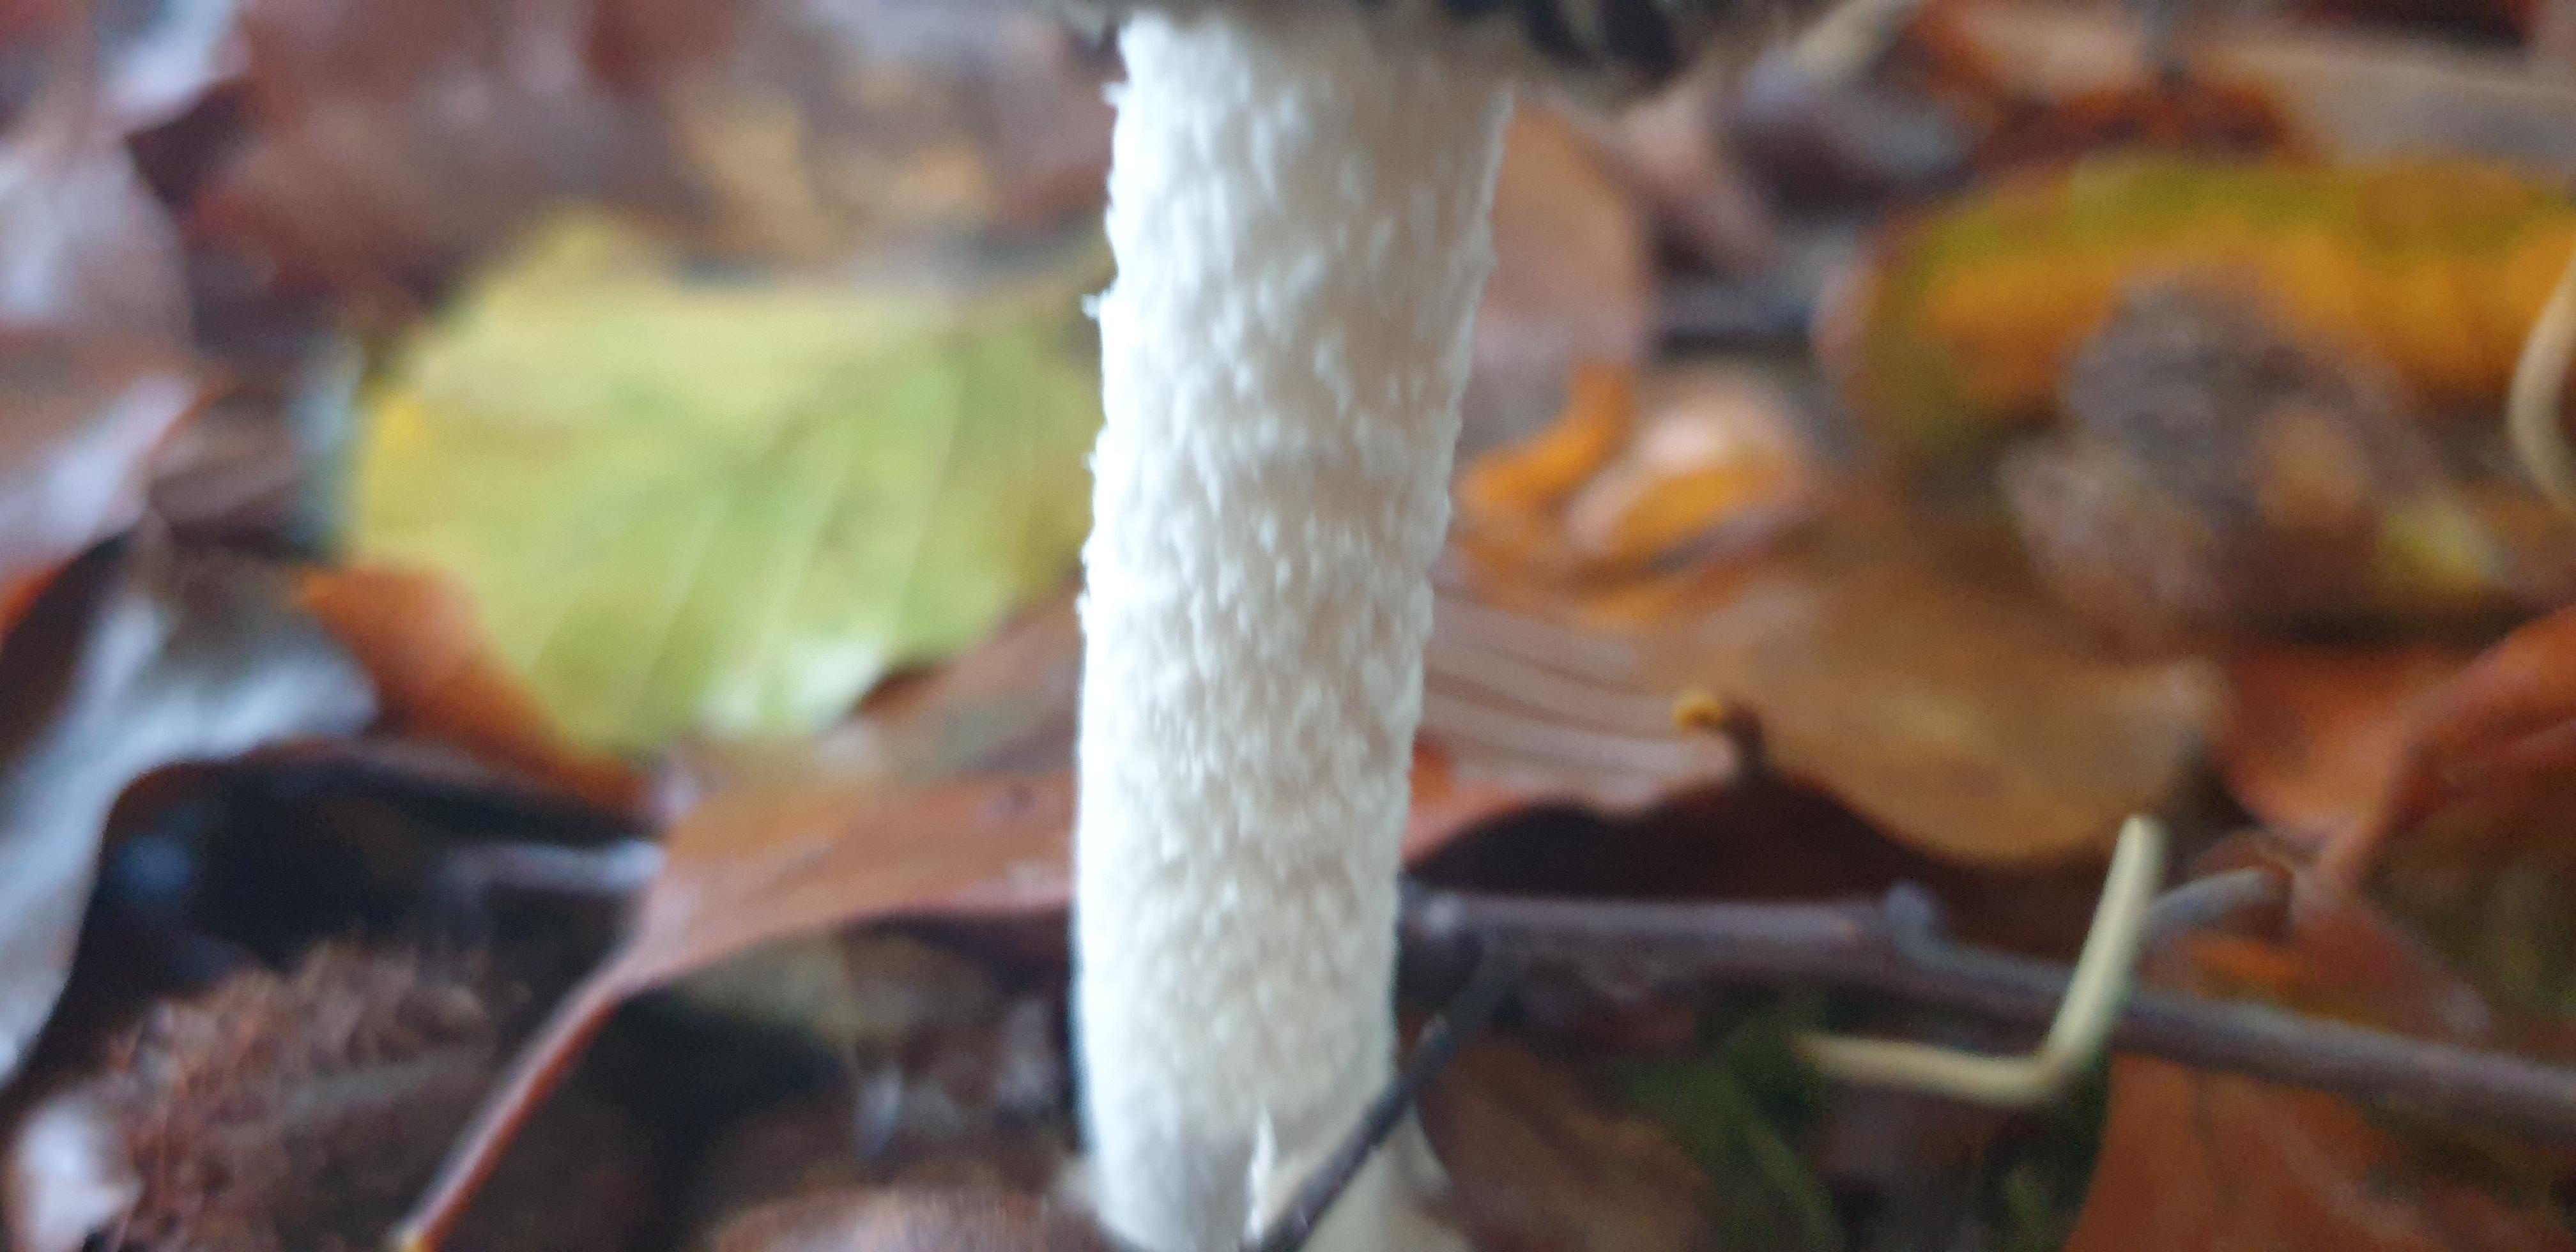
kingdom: Fungi
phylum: Basidiomycota
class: Agaricomycetes
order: Agaricales
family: Psathyrellaceae
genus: Coprinopsis
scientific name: Coprinopsis picacea
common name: skade-blækhat
